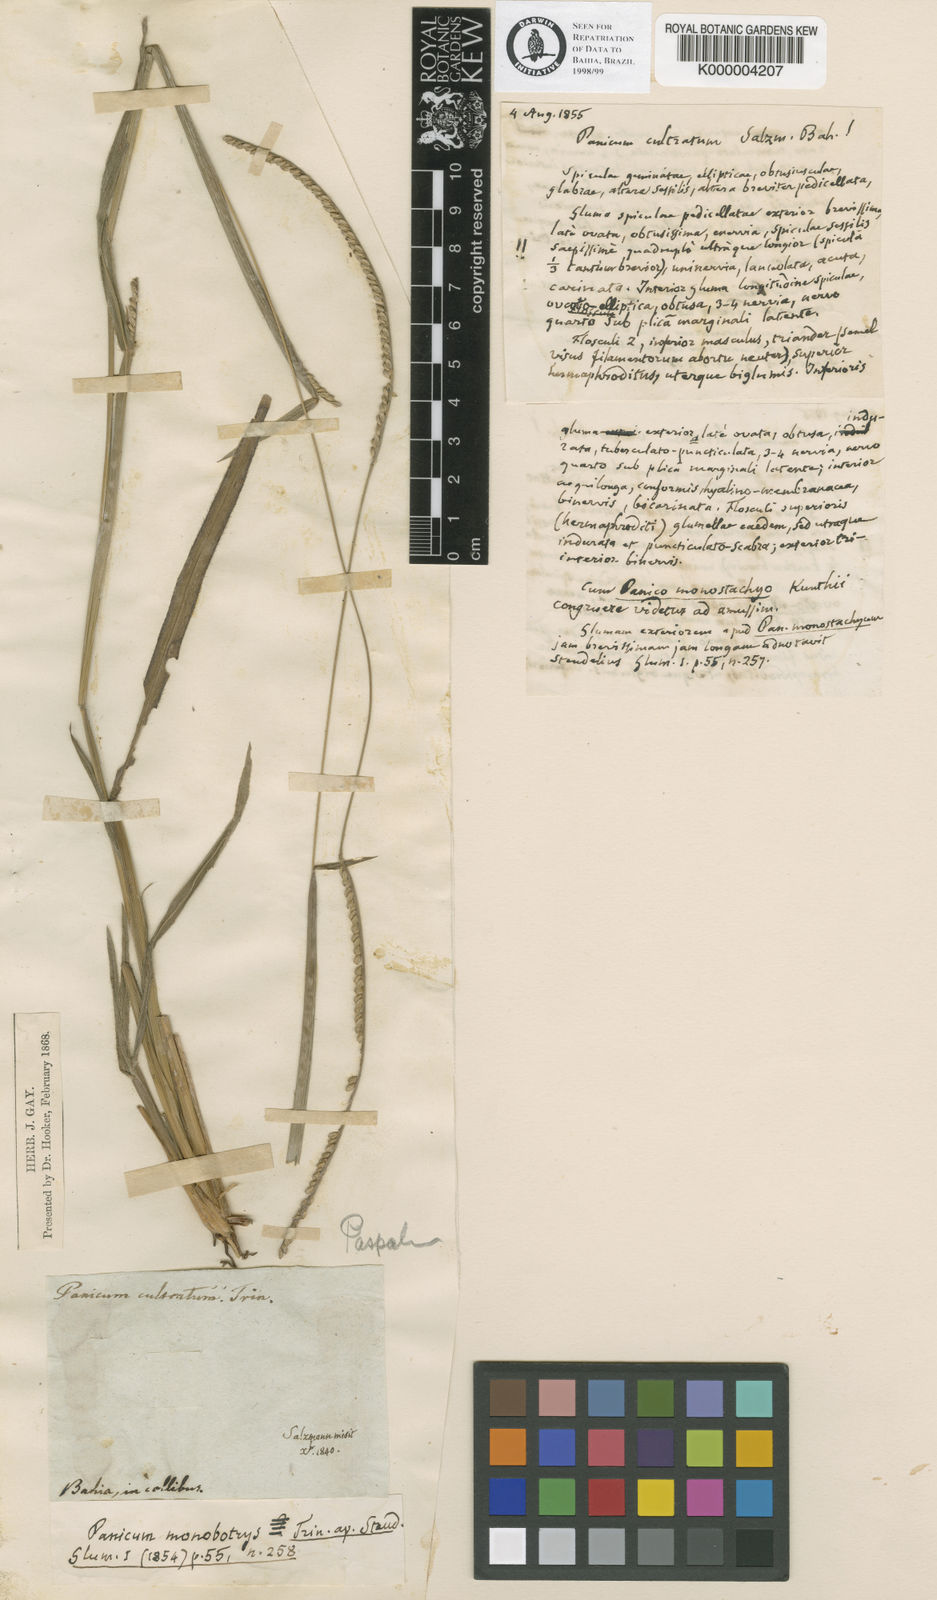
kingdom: Plantae
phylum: Tracheophyta
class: Liliopsida
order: Poales
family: Poaceae
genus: Paspalum
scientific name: Paspalum pilosum
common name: Crowngrass
